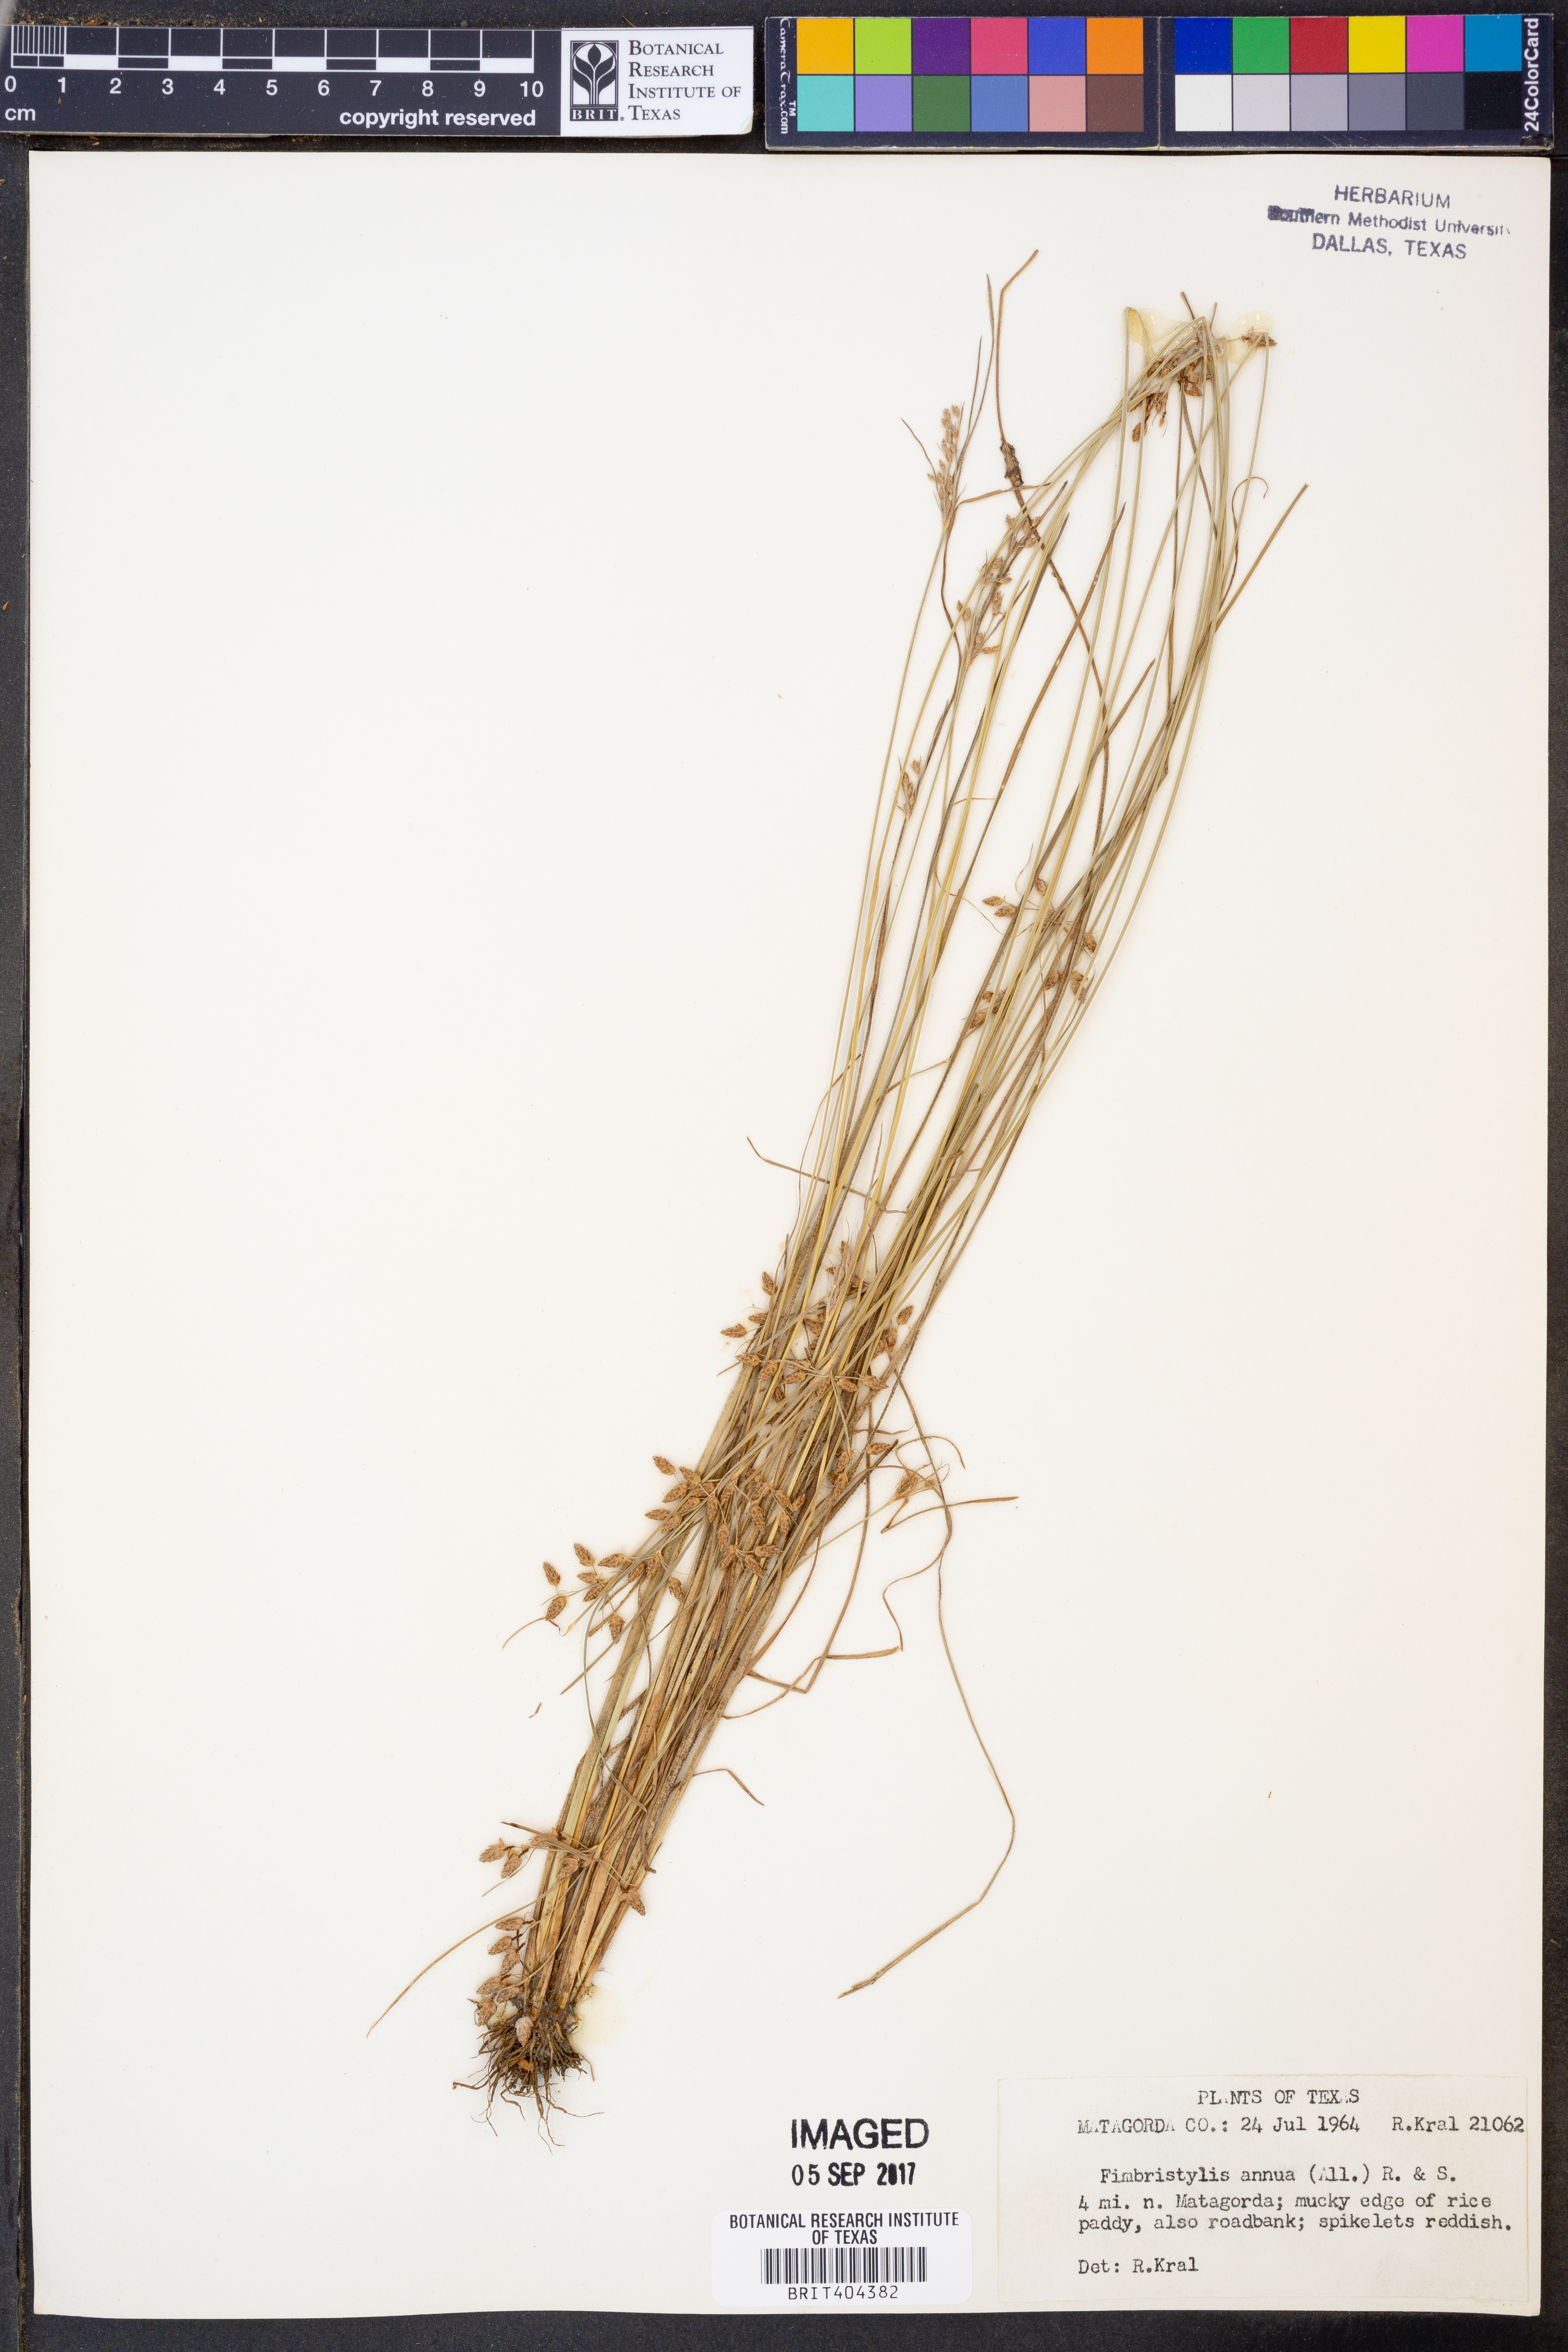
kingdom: Plantae
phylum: Tracheophyta
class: Liliopsida
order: Poales
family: Cyperaceae
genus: Fimbristylis
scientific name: Fimbristylis dichotoma
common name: Forked fimbry
